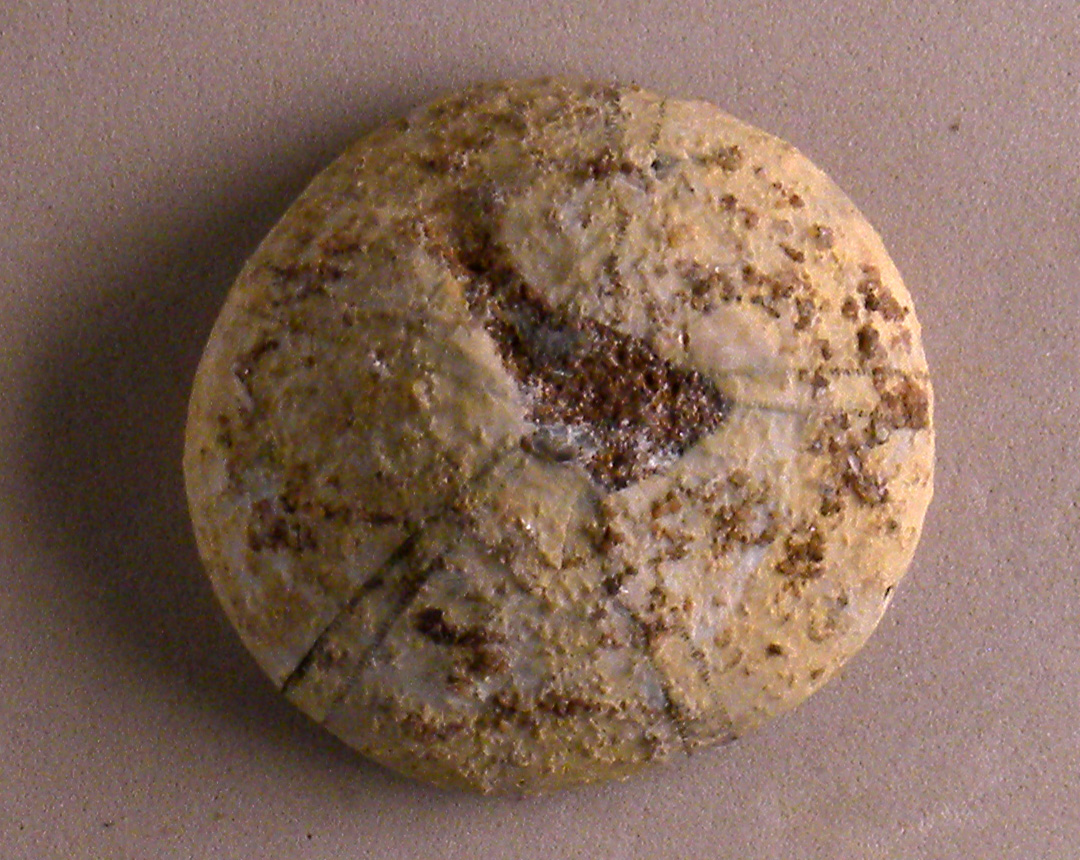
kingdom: Animalia
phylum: Echinodermata
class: Echinoidea
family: Galeropygidae
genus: Galeropygus
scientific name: Galeropygus
